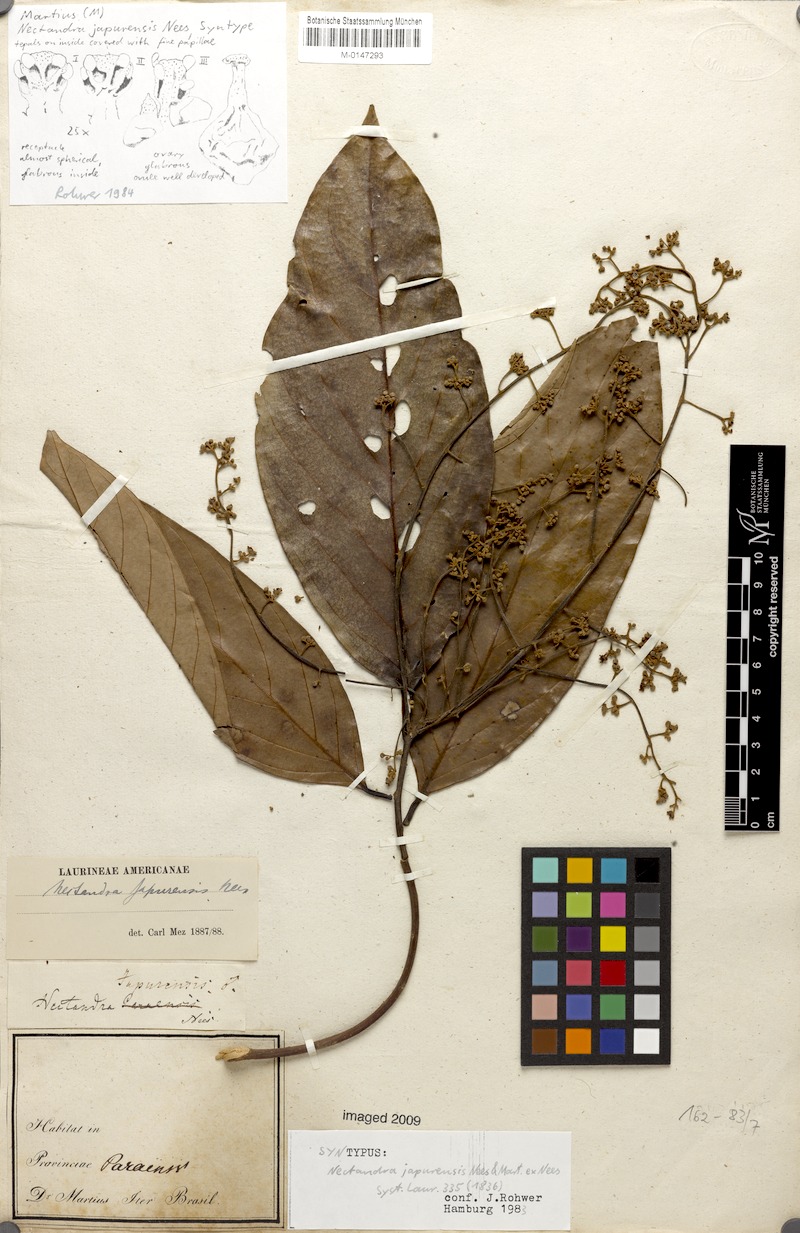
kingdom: Plantae
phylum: Tracheophyta
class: Magnoliopsida
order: Laurales
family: Lauraceae
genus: Nectandra
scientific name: Nectandra japurensis
